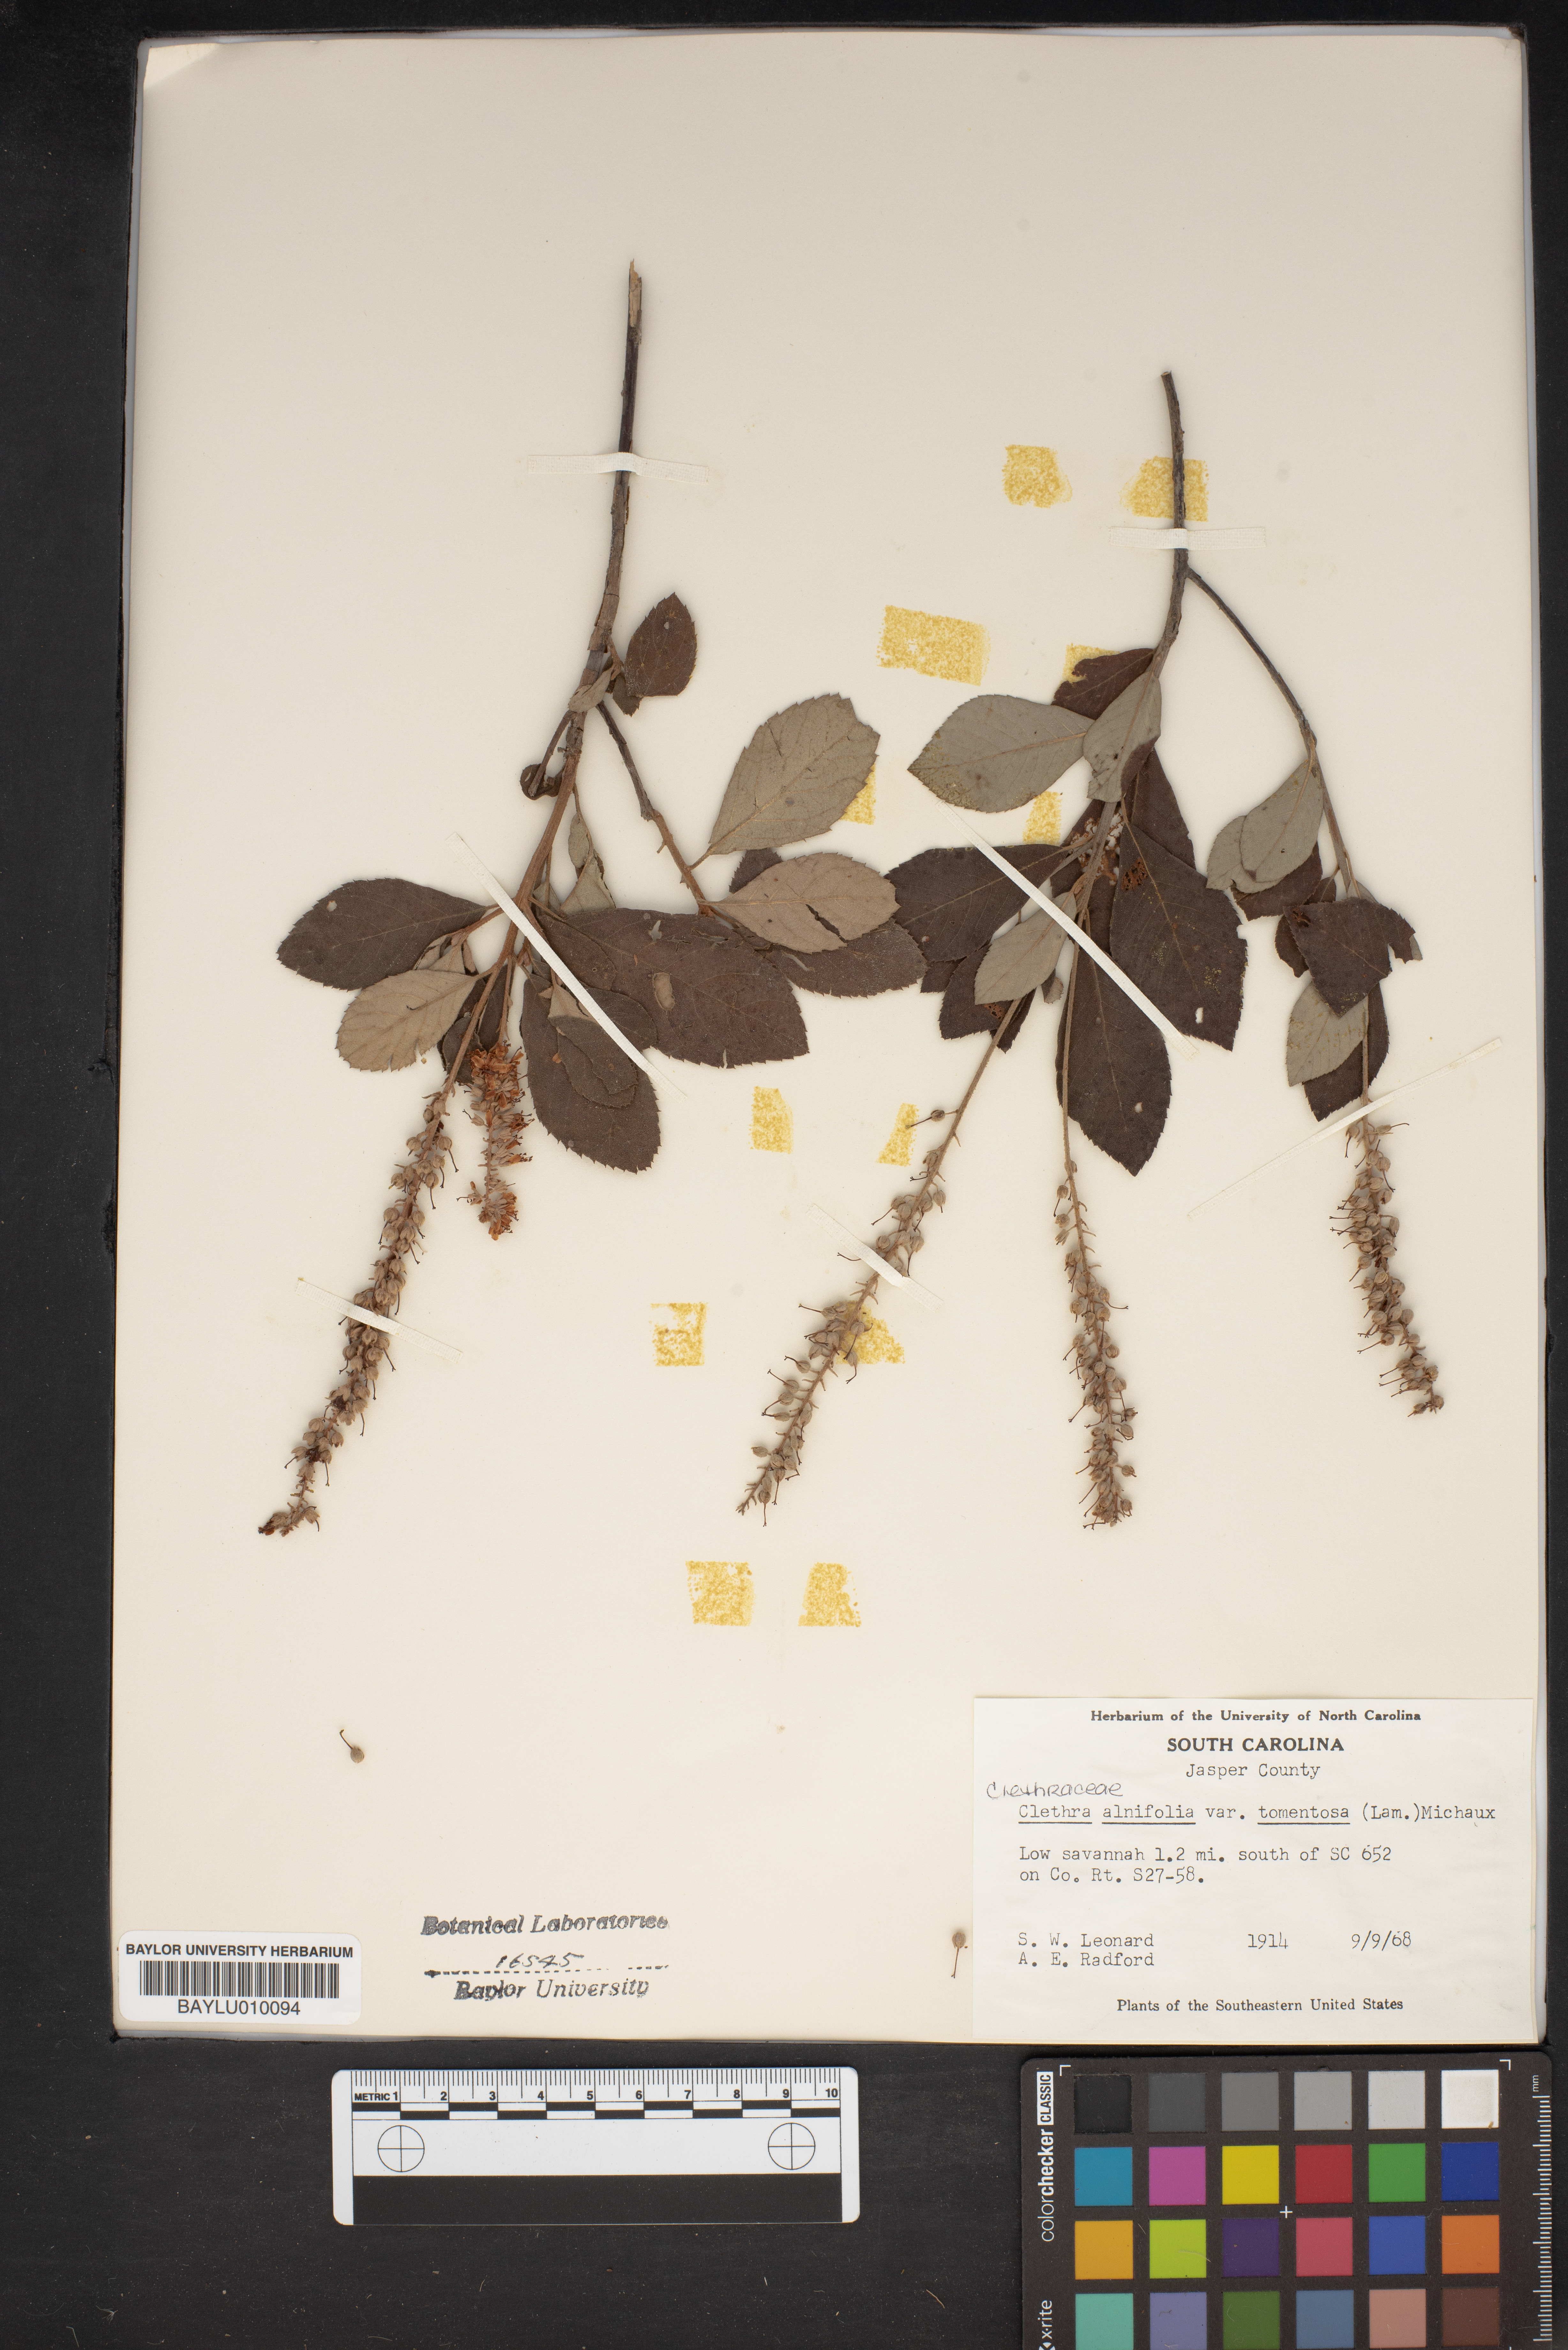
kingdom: Plantae
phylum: Tracheophyta
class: Magnoliopsida
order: Ericales
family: Clethraceae
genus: Clethra
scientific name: Clethra tomentosa
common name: Downy sweet pepperbush
